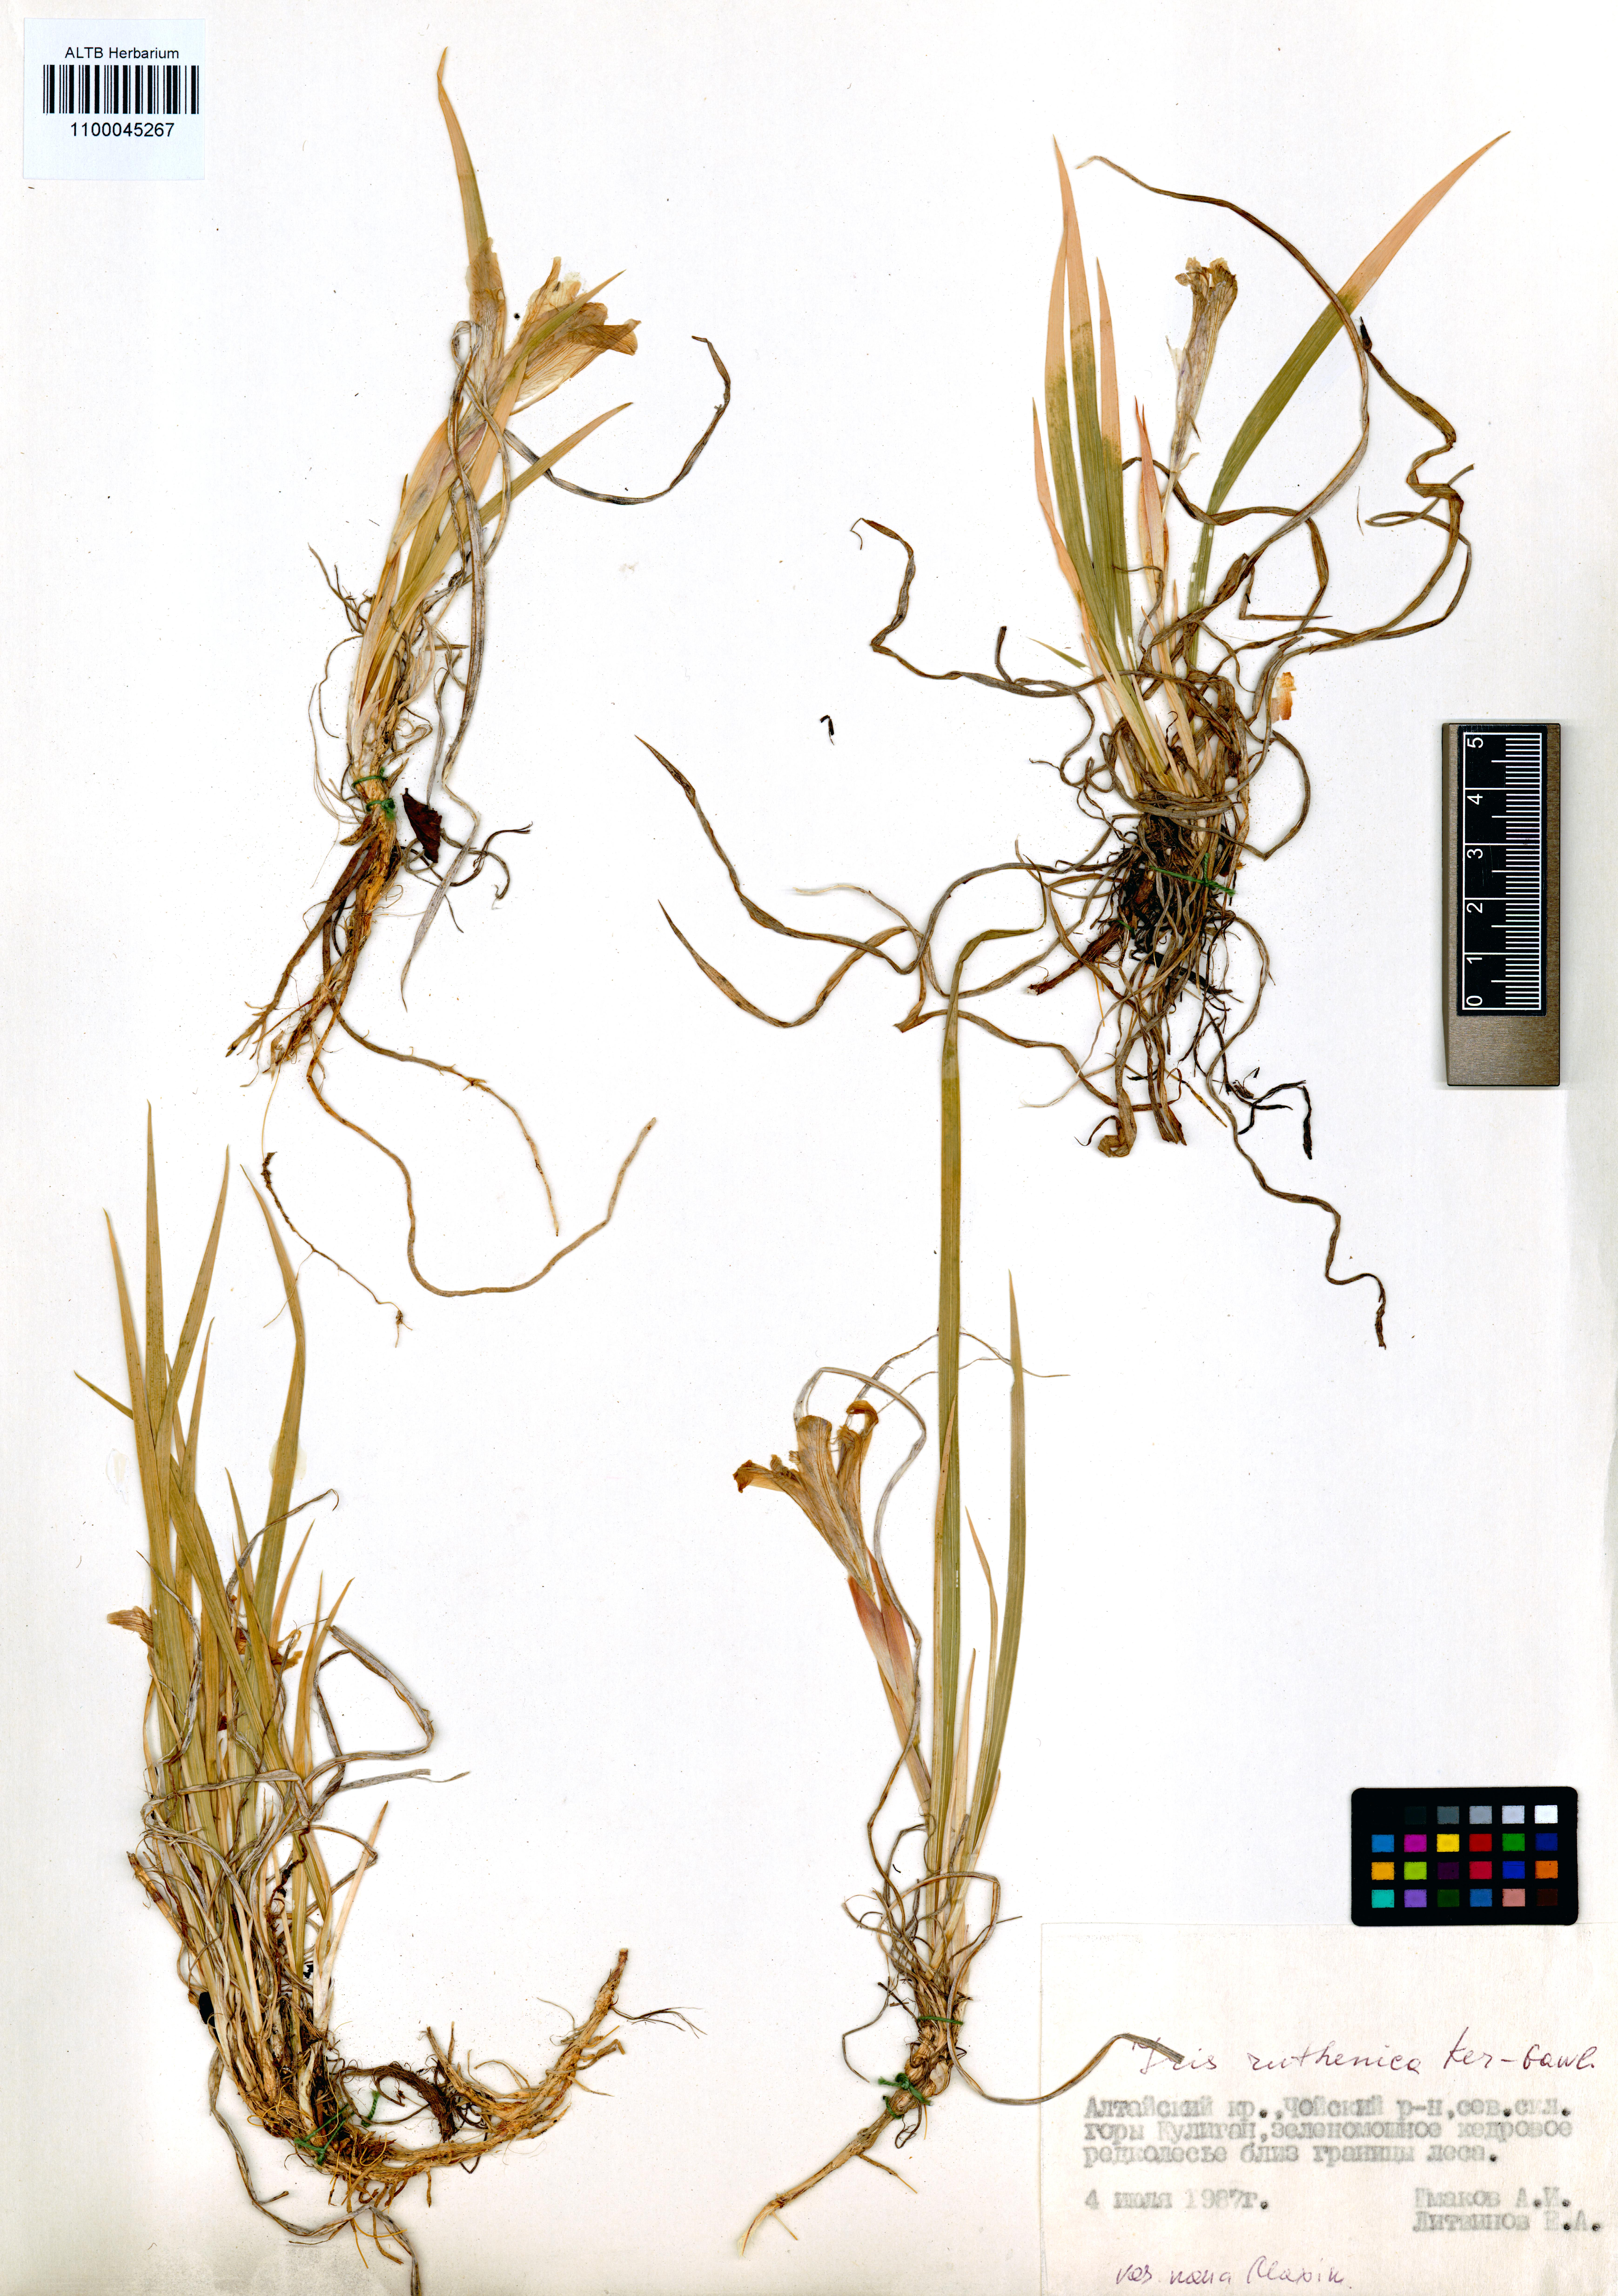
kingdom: Plantae
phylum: Tracheophyta
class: Liliopsida
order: Asparagales
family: Iridaceae
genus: Iris
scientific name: Iris ruthenica
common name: Purple-bract iris
